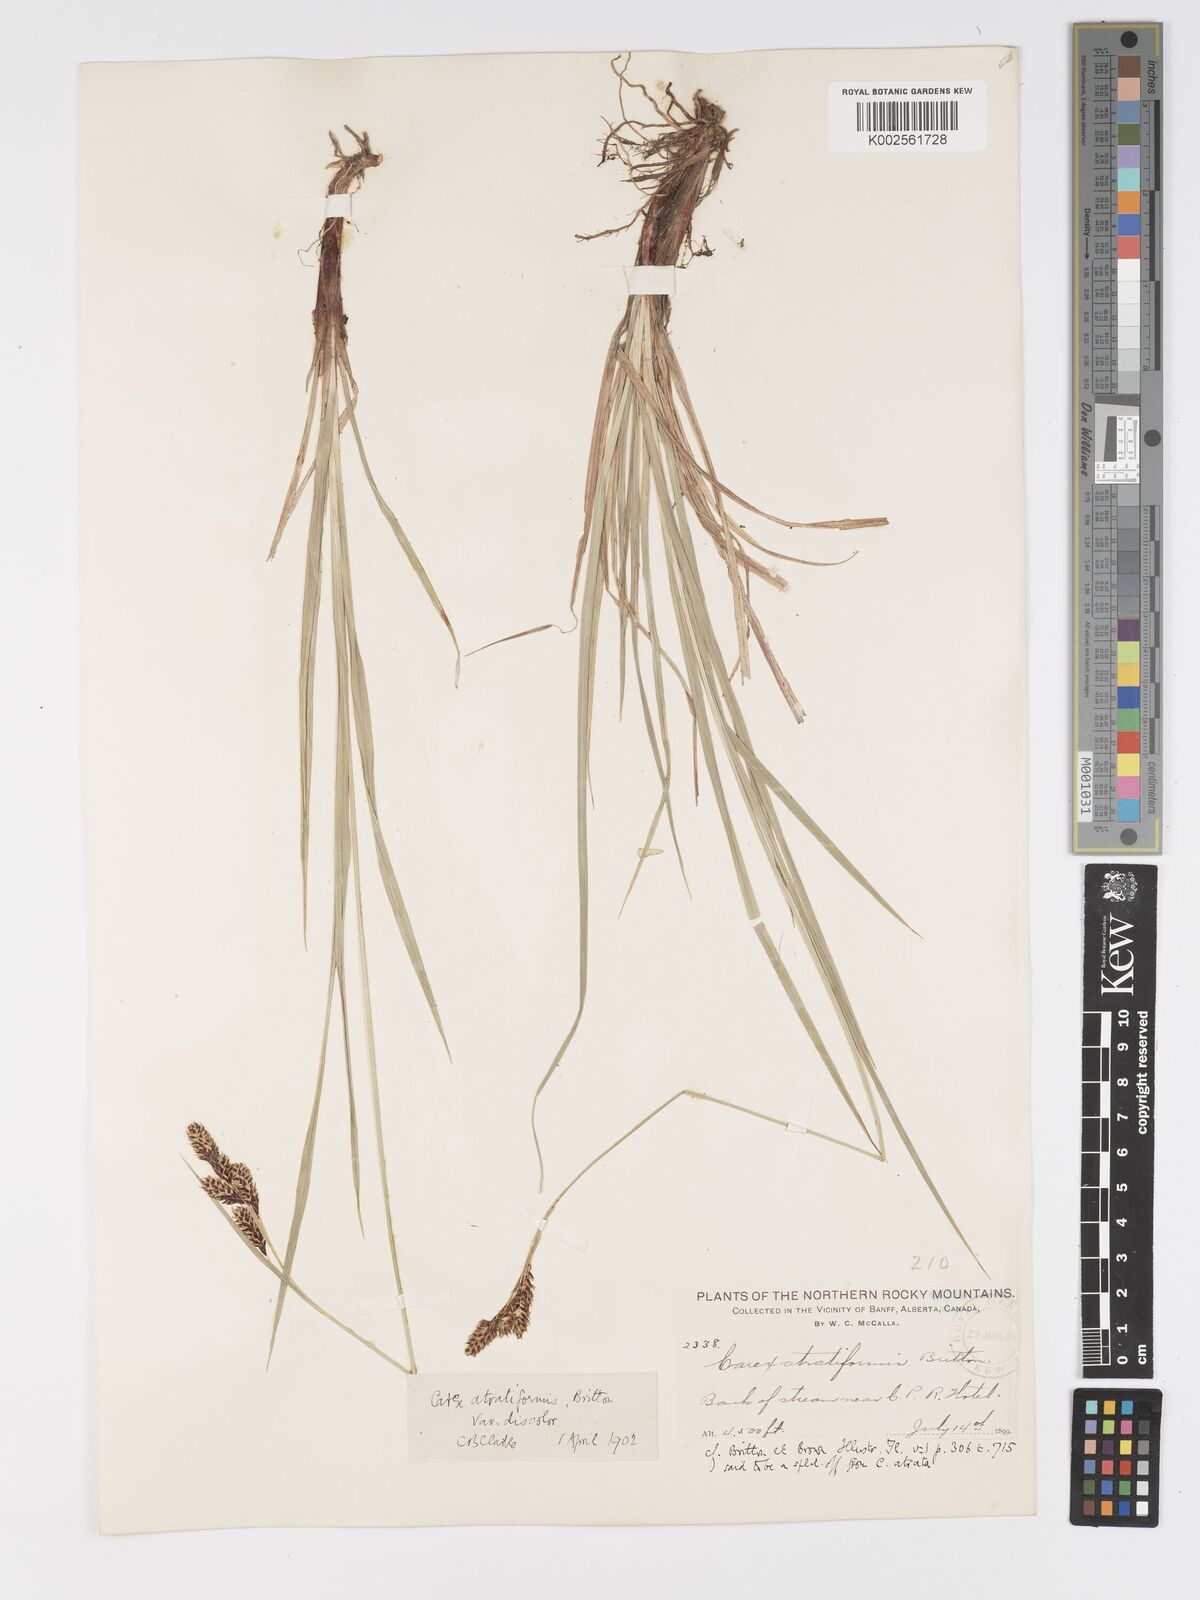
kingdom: Plantae
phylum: Tracheophyta
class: Liliopsida
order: Poales
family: Cyperaceae
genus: Carex
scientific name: Carex atratiformis
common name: Black sedge
